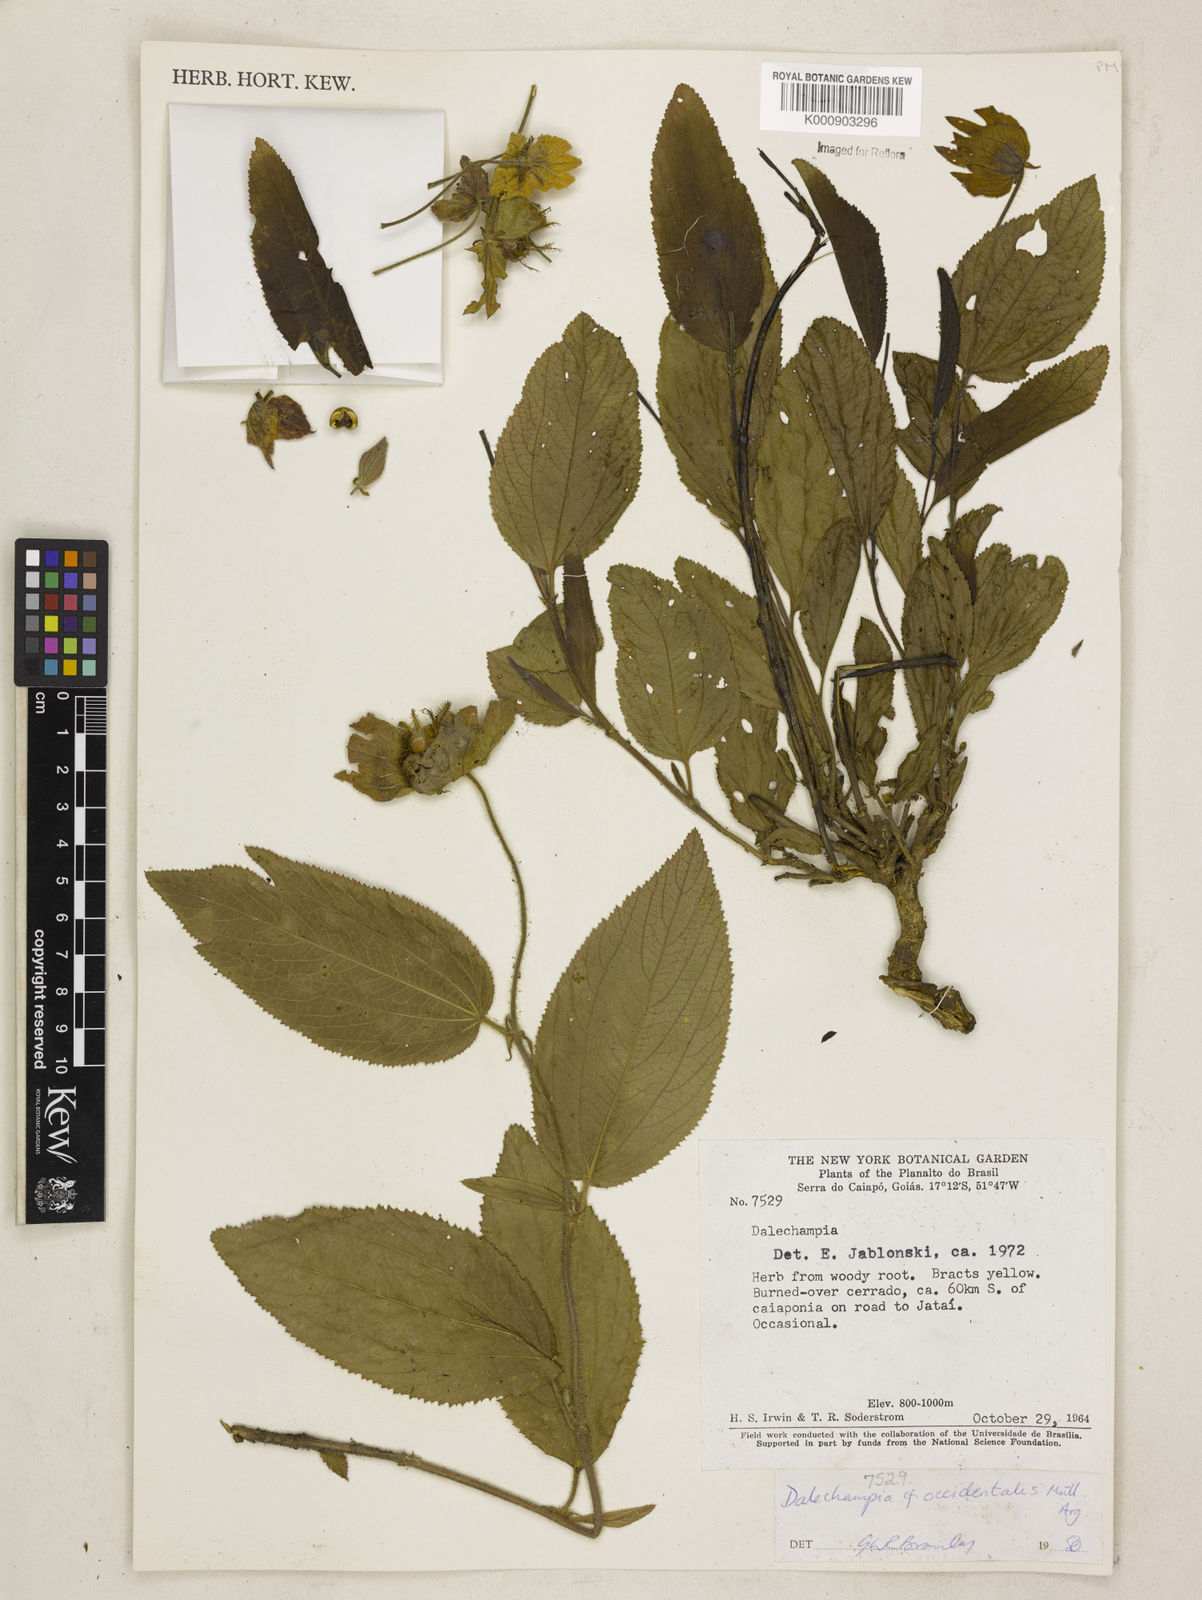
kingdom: Plantae
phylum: Tracheophyta
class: Magnoliopsida
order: Malpighiales
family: Euphorbiaceae
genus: Dalechampia
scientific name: Dalechampia
